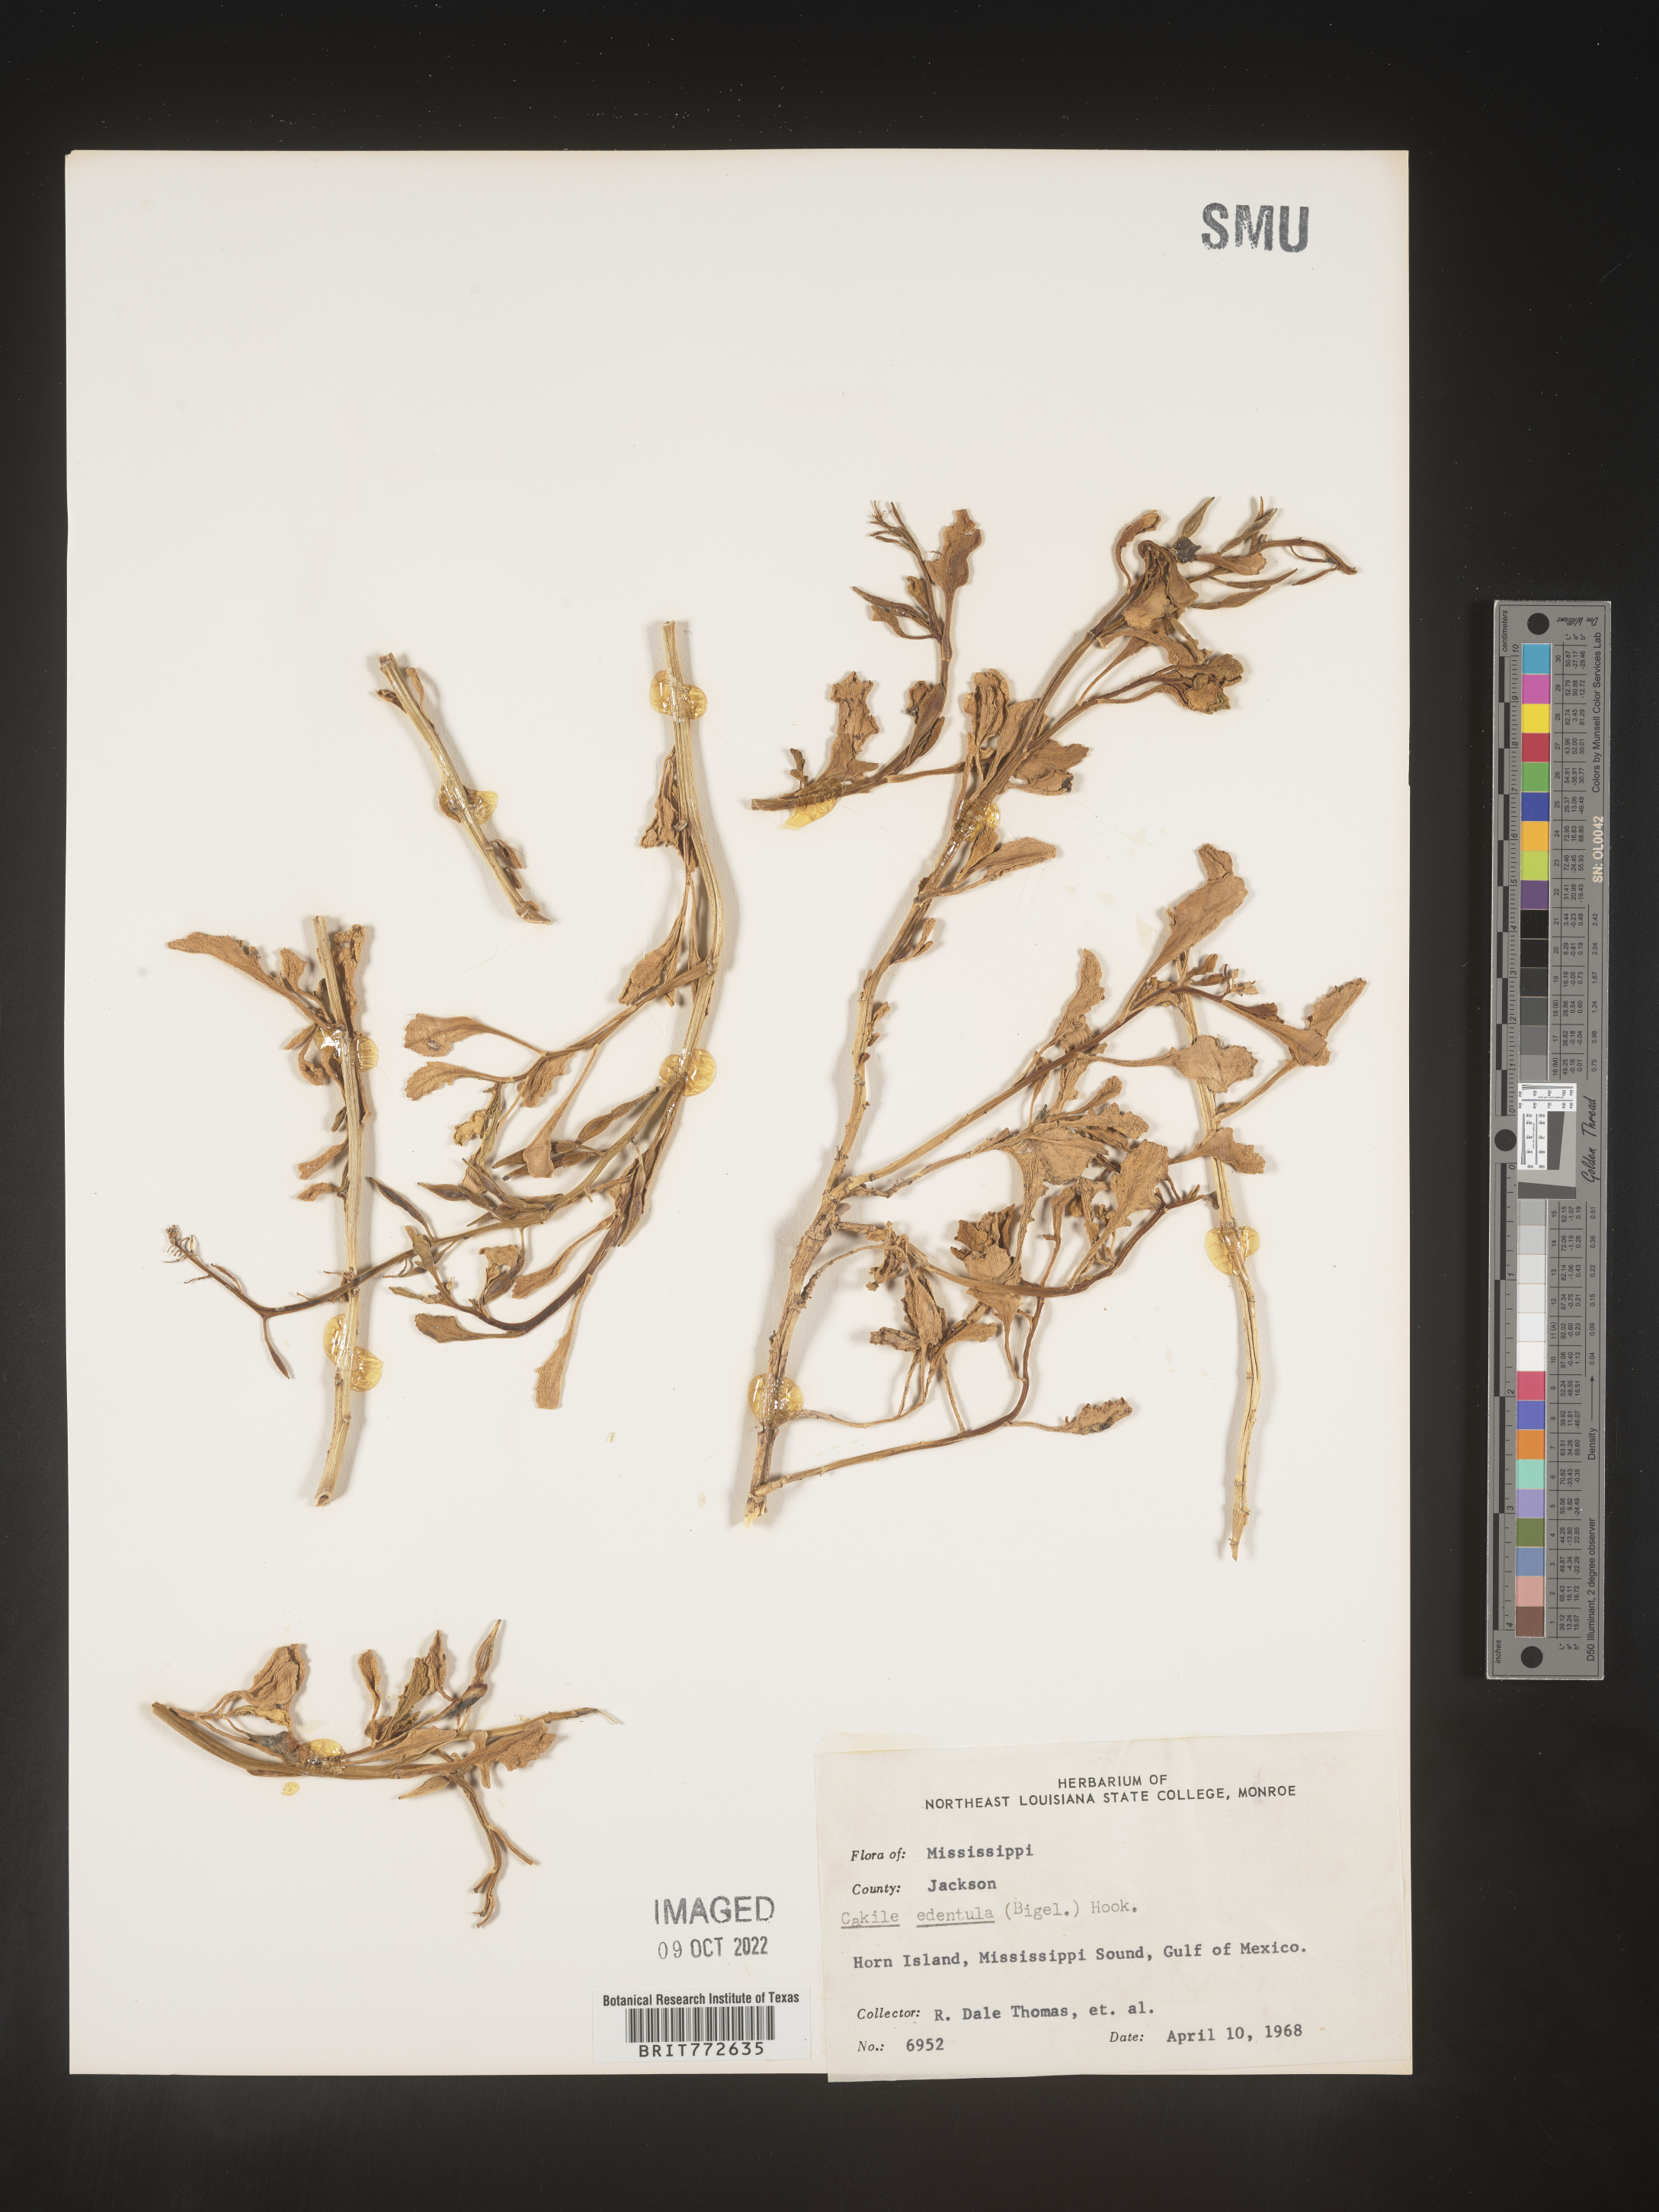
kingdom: Plantae
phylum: Tracheophyta
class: Magnoliopsida
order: Brassicales
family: Brassicaceae
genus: Cakile
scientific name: Cakile edentula
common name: American sea rocket
